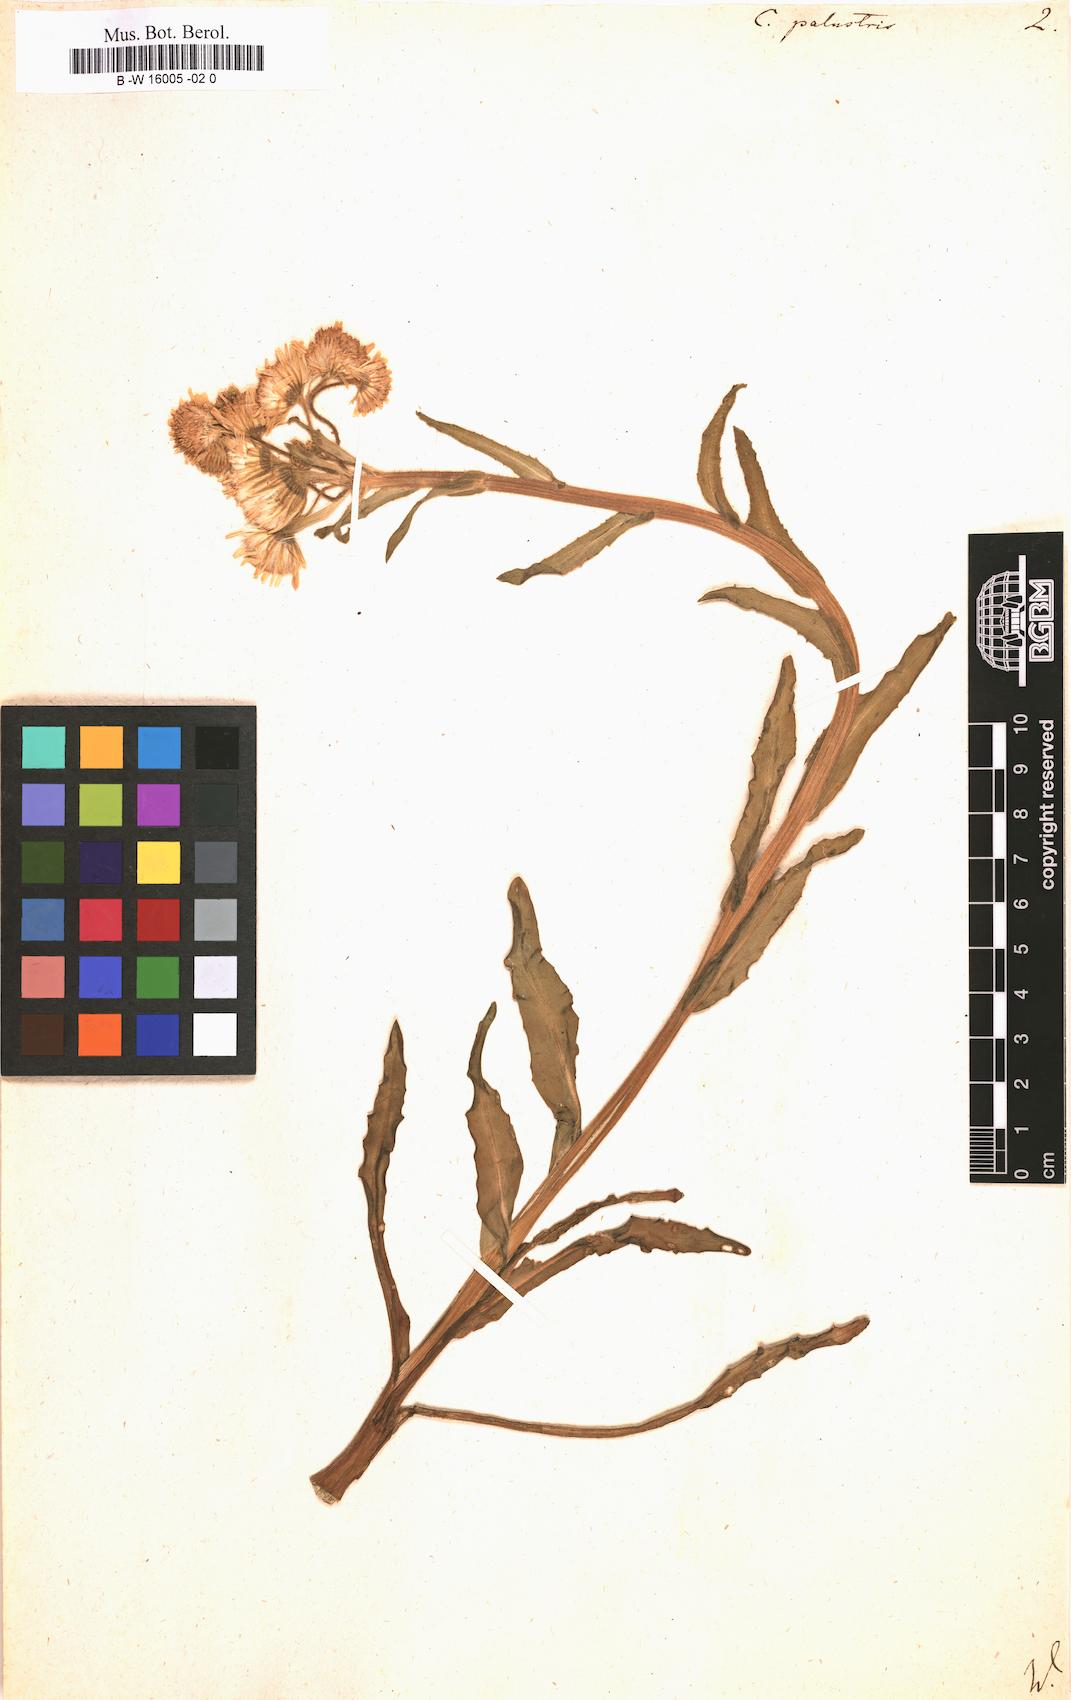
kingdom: Plantae
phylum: Tracheophyta
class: Magnoliopsida
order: Asterales
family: Asteraceae
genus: Tephroseris
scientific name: Tephroseris palustris
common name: Marsh fleawort
